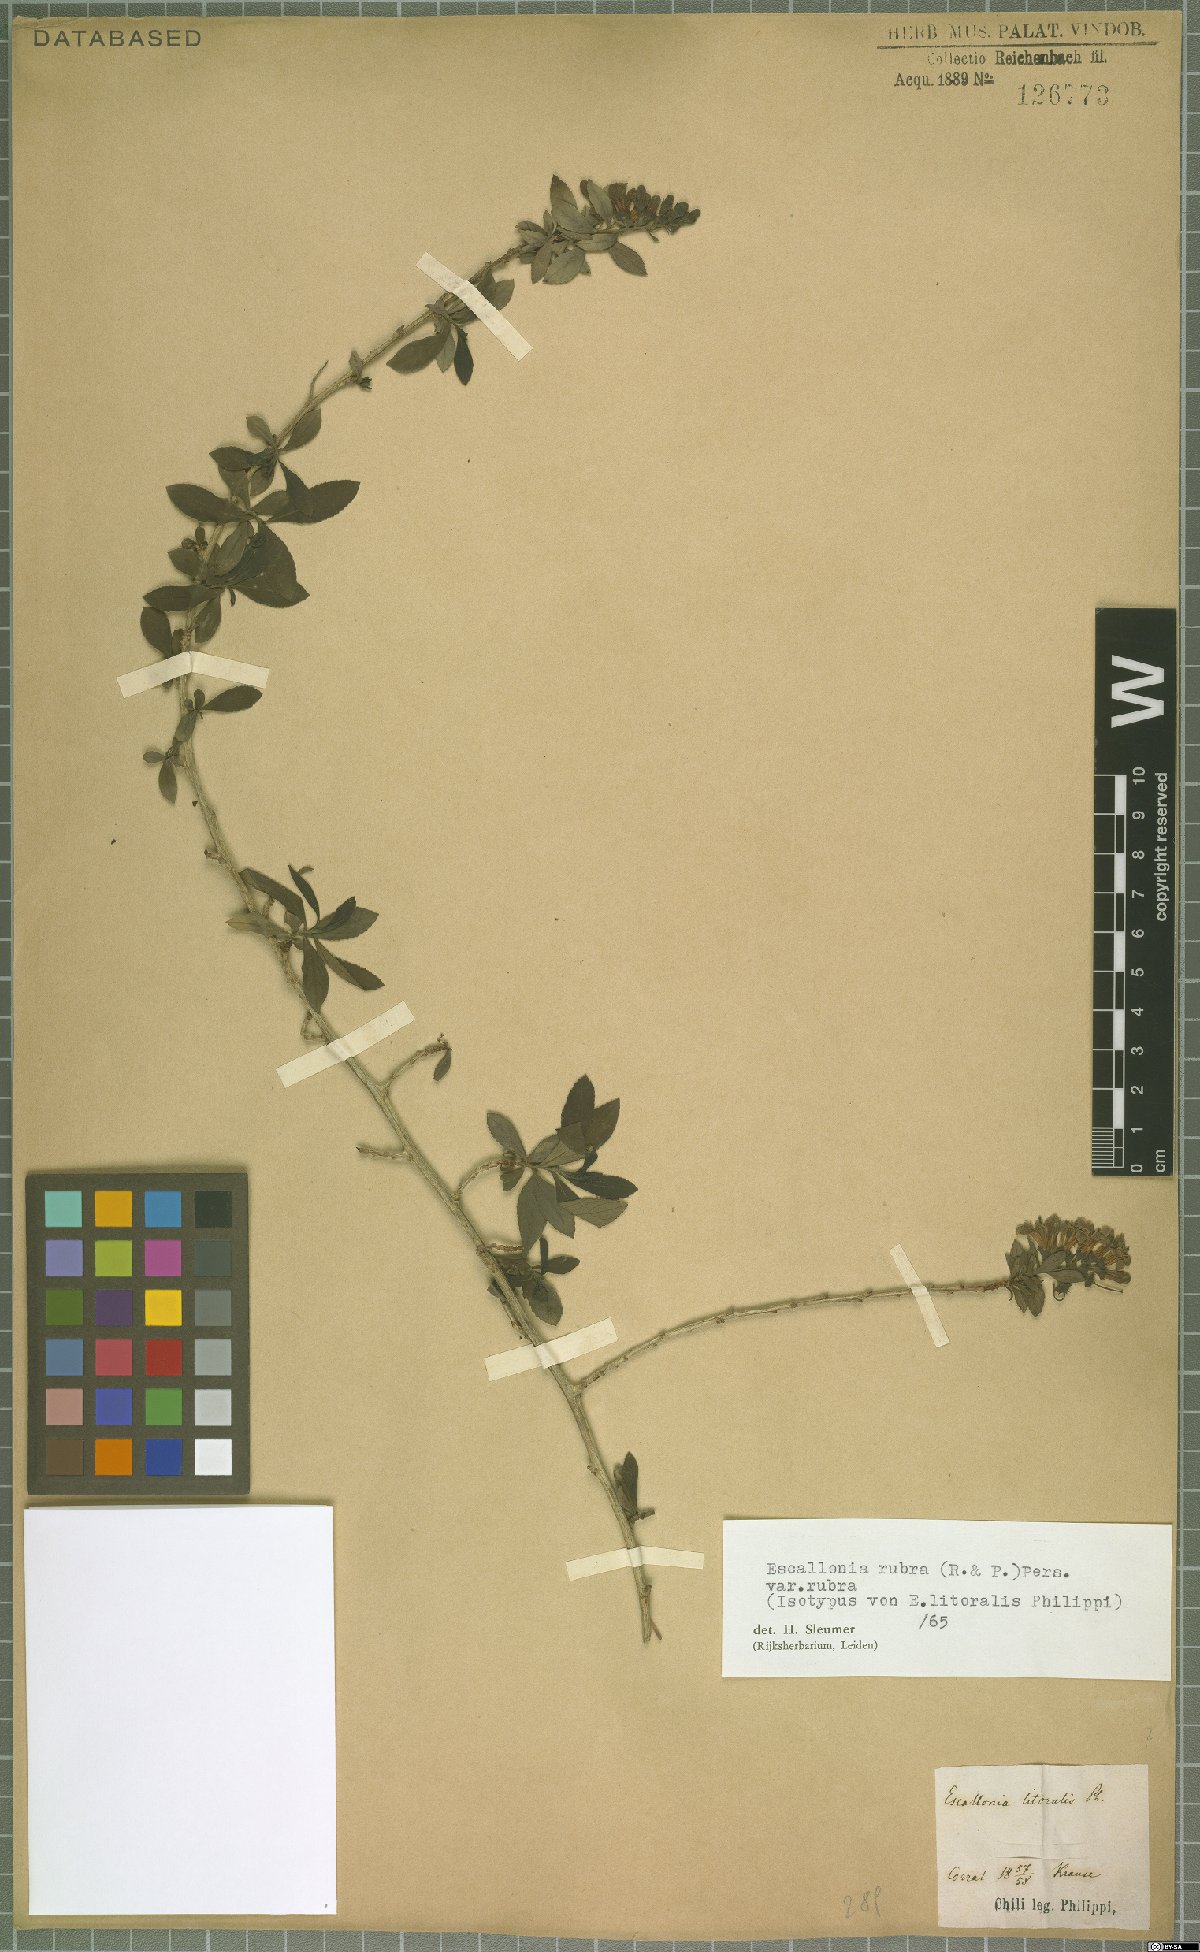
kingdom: Plantae
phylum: Tracheophyta
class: Magnoliopsida
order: Escalloniales
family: Escalloniaceae
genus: Escallonia
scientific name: Escallonia rubra
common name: Redclaws
